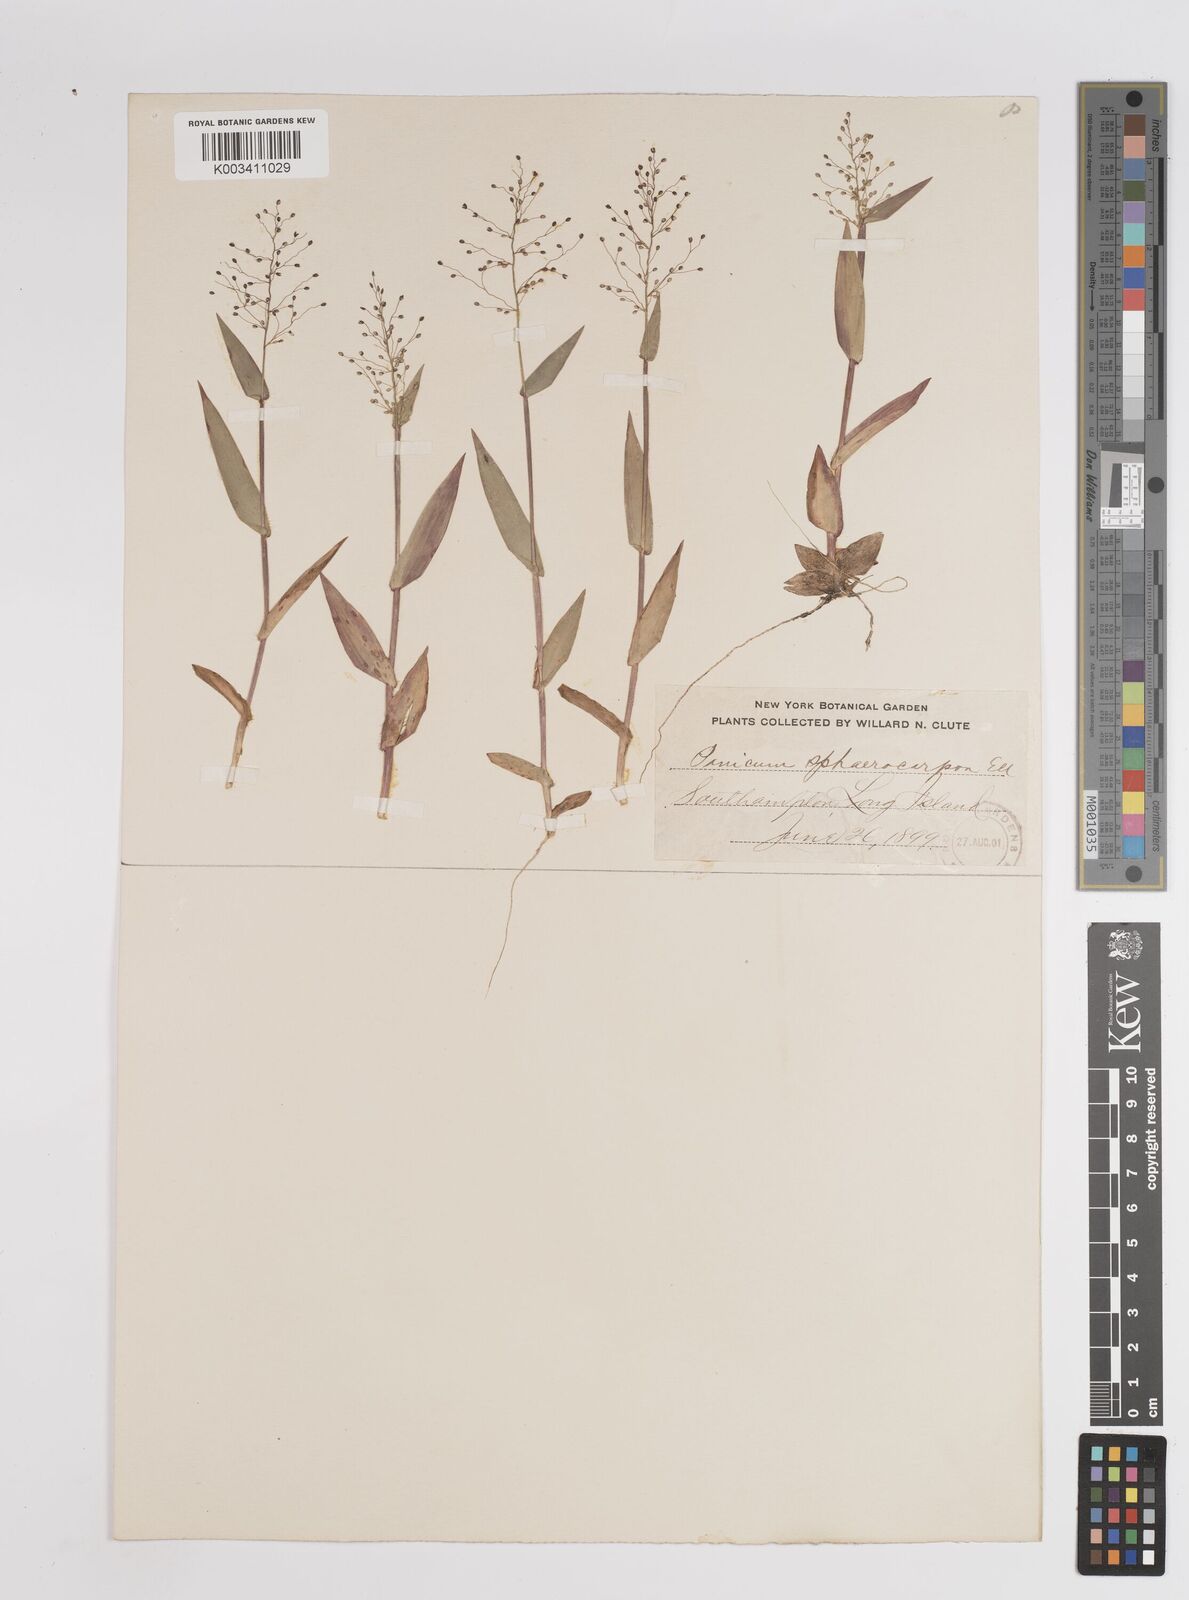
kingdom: Plantae
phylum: Tracheophyta
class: Liliopsida
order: Poales
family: Poaceae
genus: Setaria
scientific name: Setaria tenax
